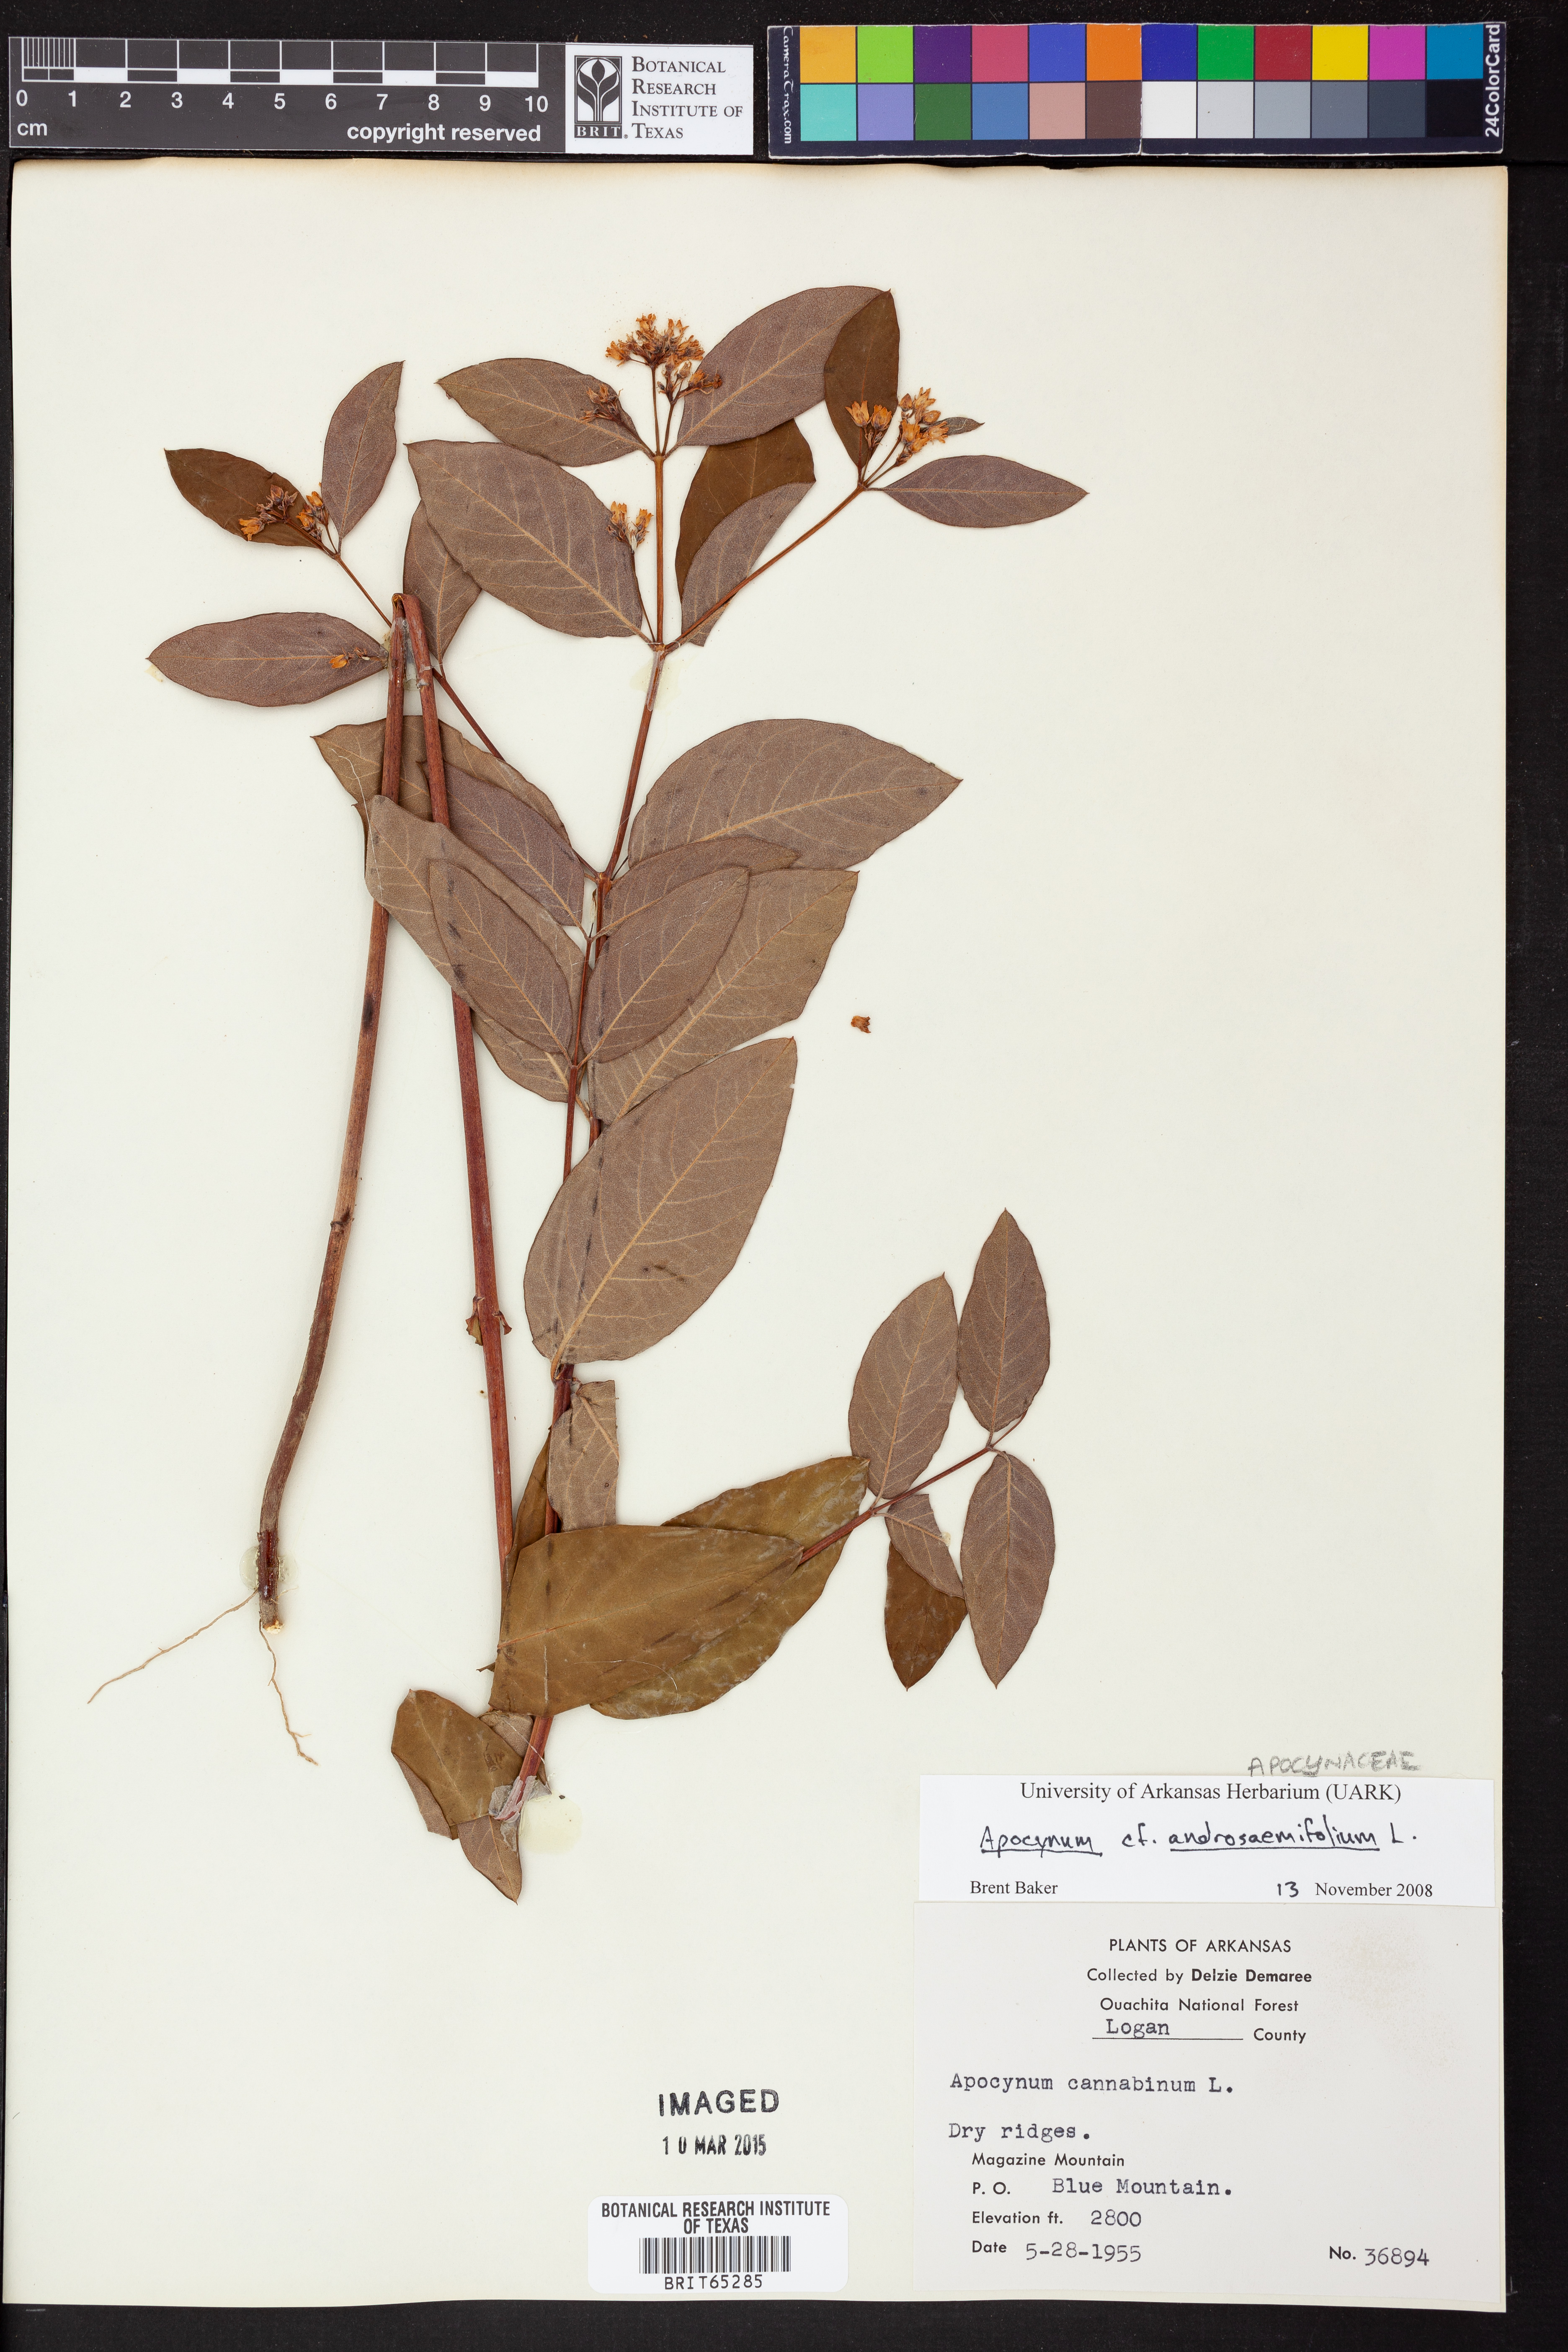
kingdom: Plantae
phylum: Tracheophyta
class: Magnoliopsida
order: Gentianales
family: Apocynaceae
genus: Apocynum
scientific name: Apocynum androsaemifolium
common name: Spreading dogbane
